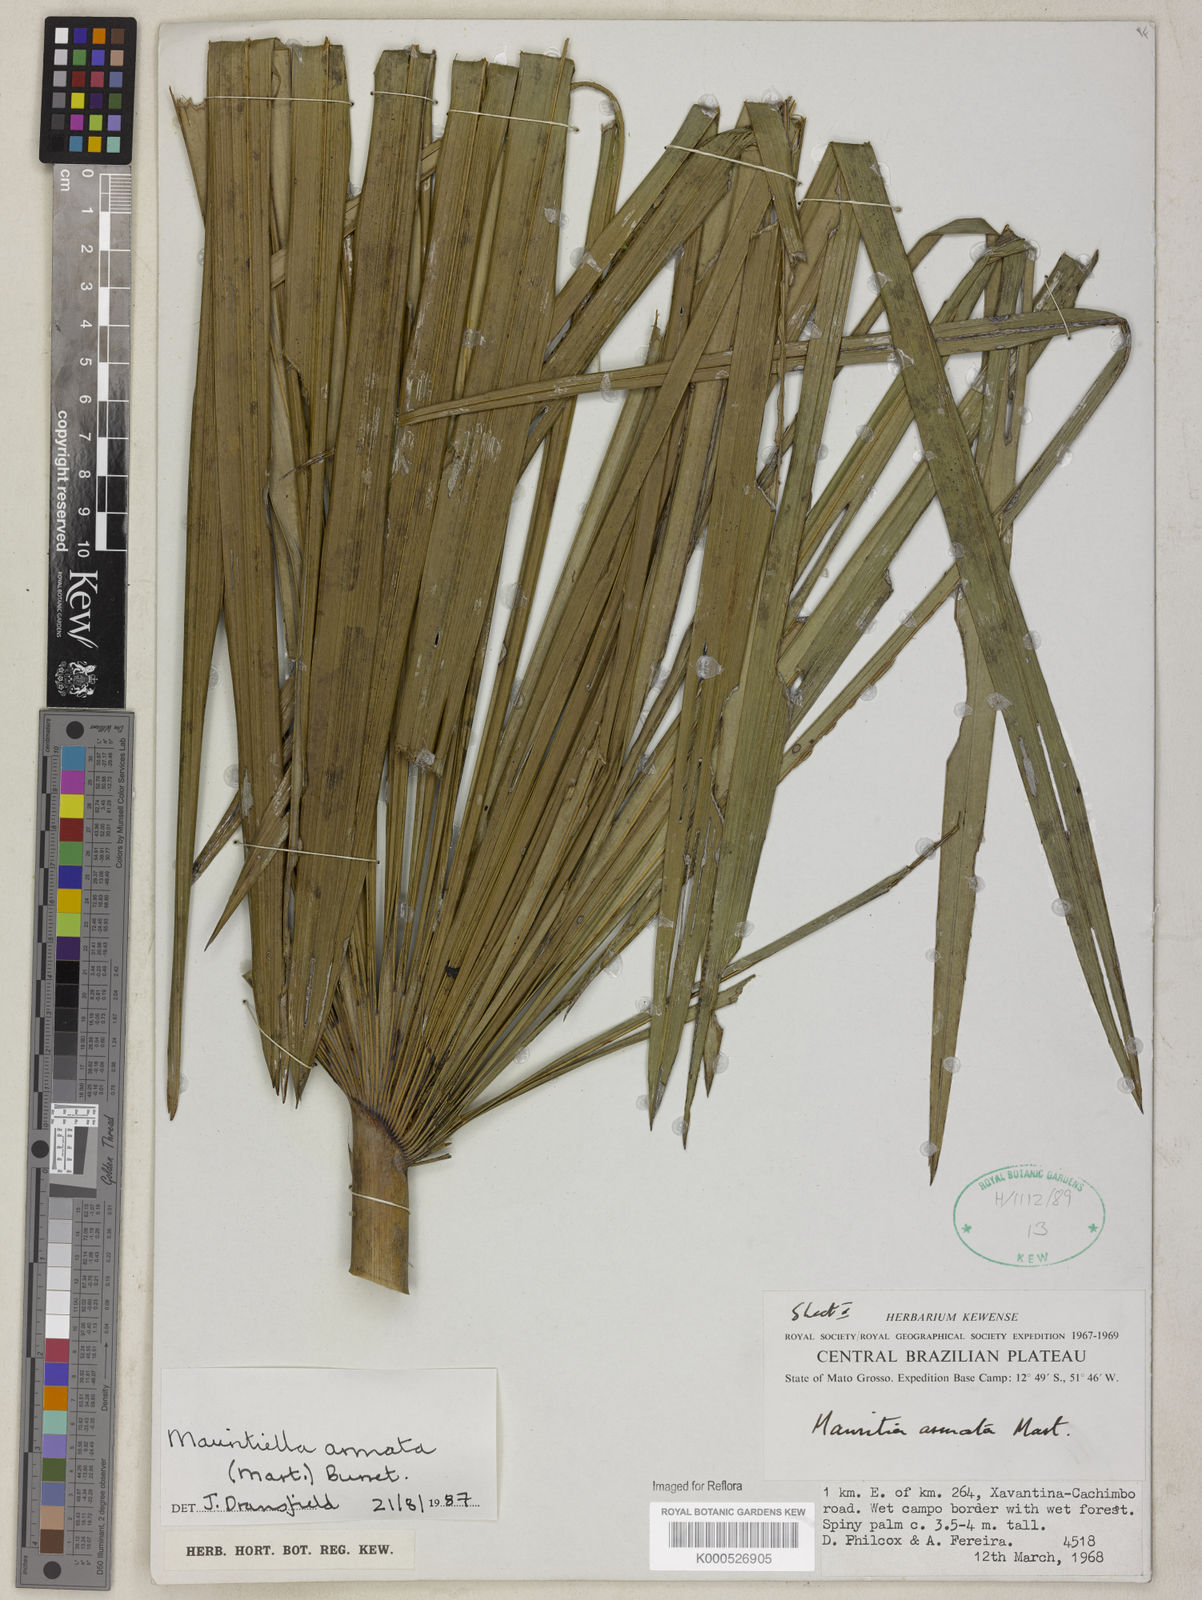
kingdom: Plantae
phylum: Tracheophyta
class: Liliopsida
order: Arecales
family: Arecaceae
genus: Mauritiella
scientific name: Mauritiella armata
